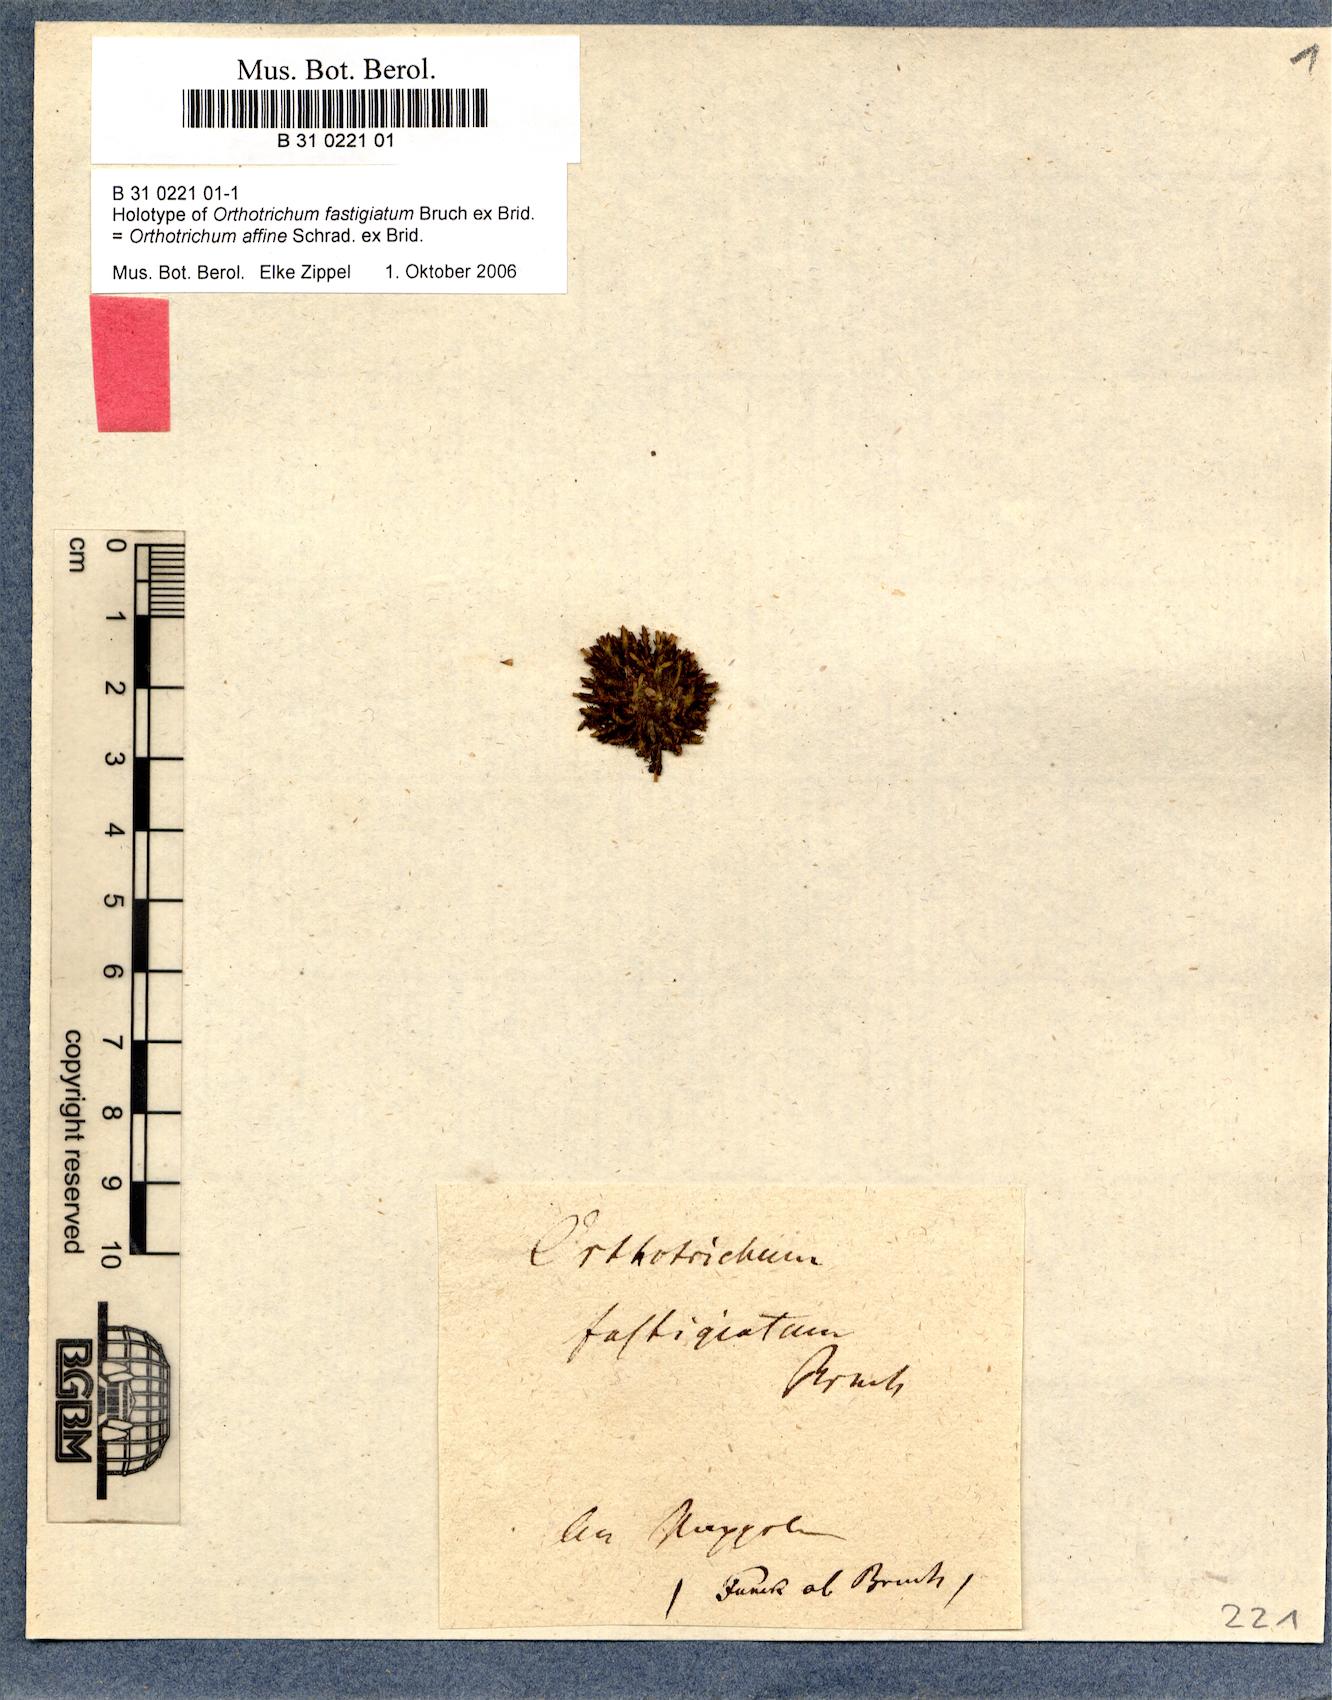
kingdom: Plantae
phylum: Bryophyta
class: Bryopsida
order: Orthotrichales
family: Orthotrichaceae
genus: Lewinskya
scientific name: Lewinskya fastigiata
